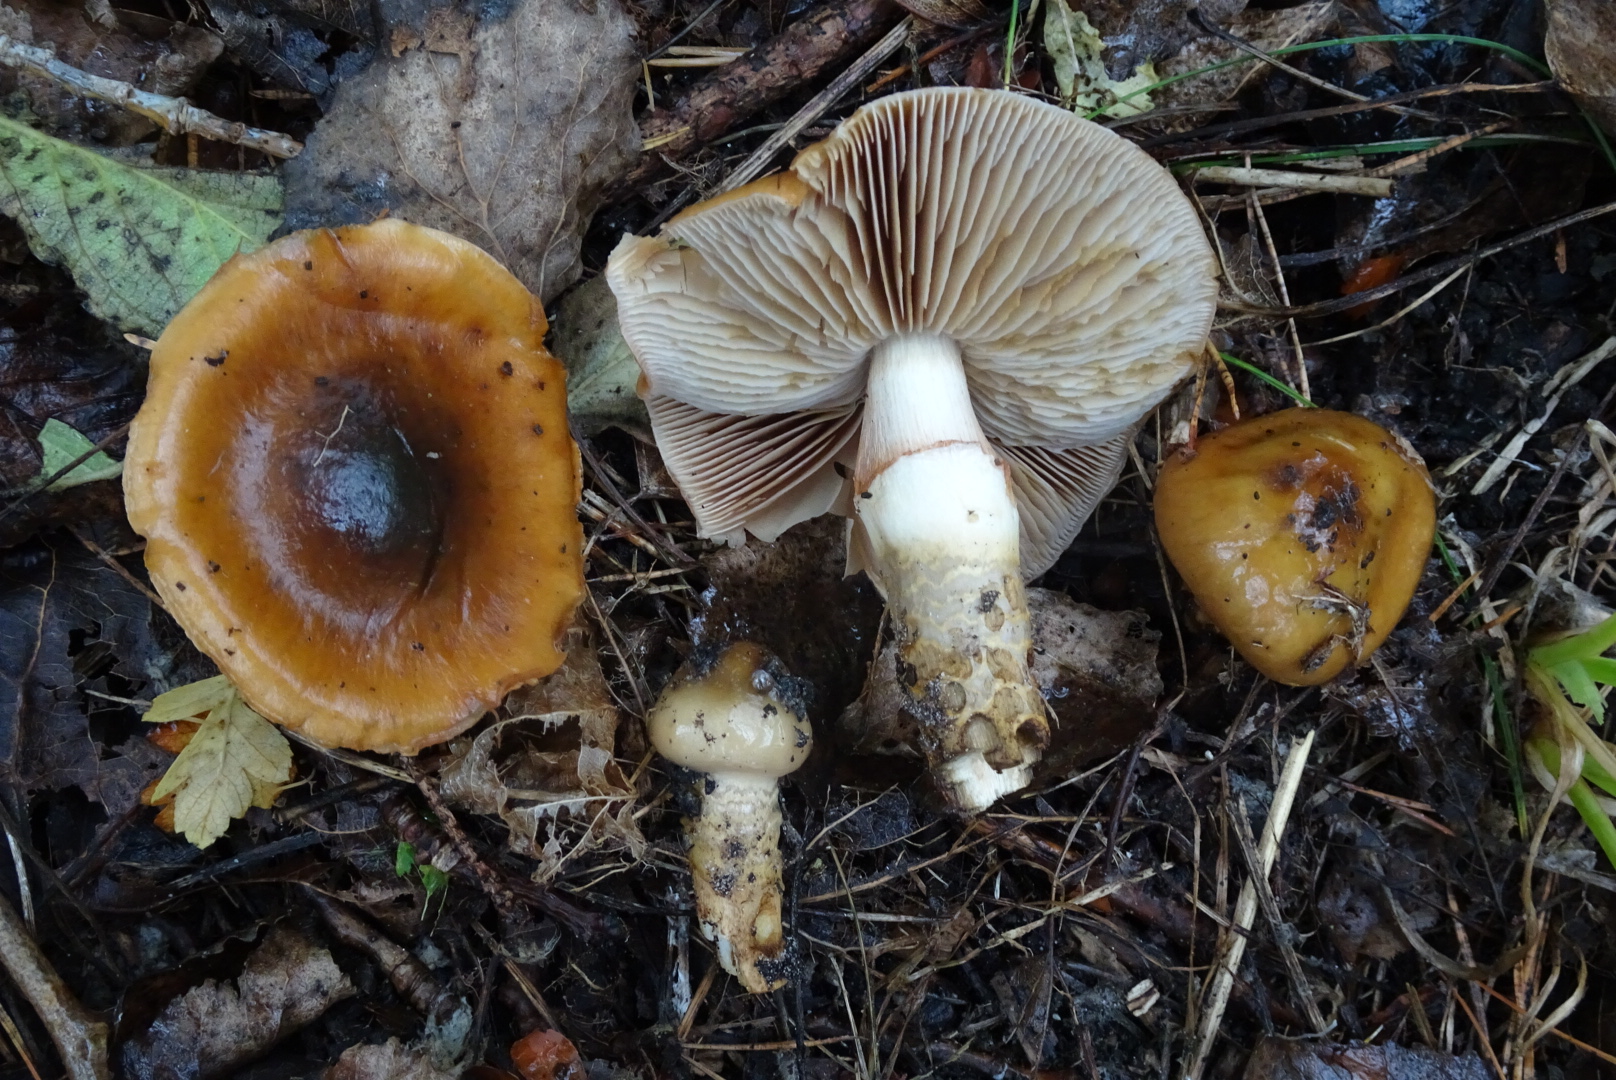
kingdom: Fungi
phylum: Basidiomycota
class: Agaricomycetes
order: Agaricales
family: Cortinariaceae
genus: Cortinarius
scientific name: Cortinarius trivialis
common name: brunslimet slørhat
